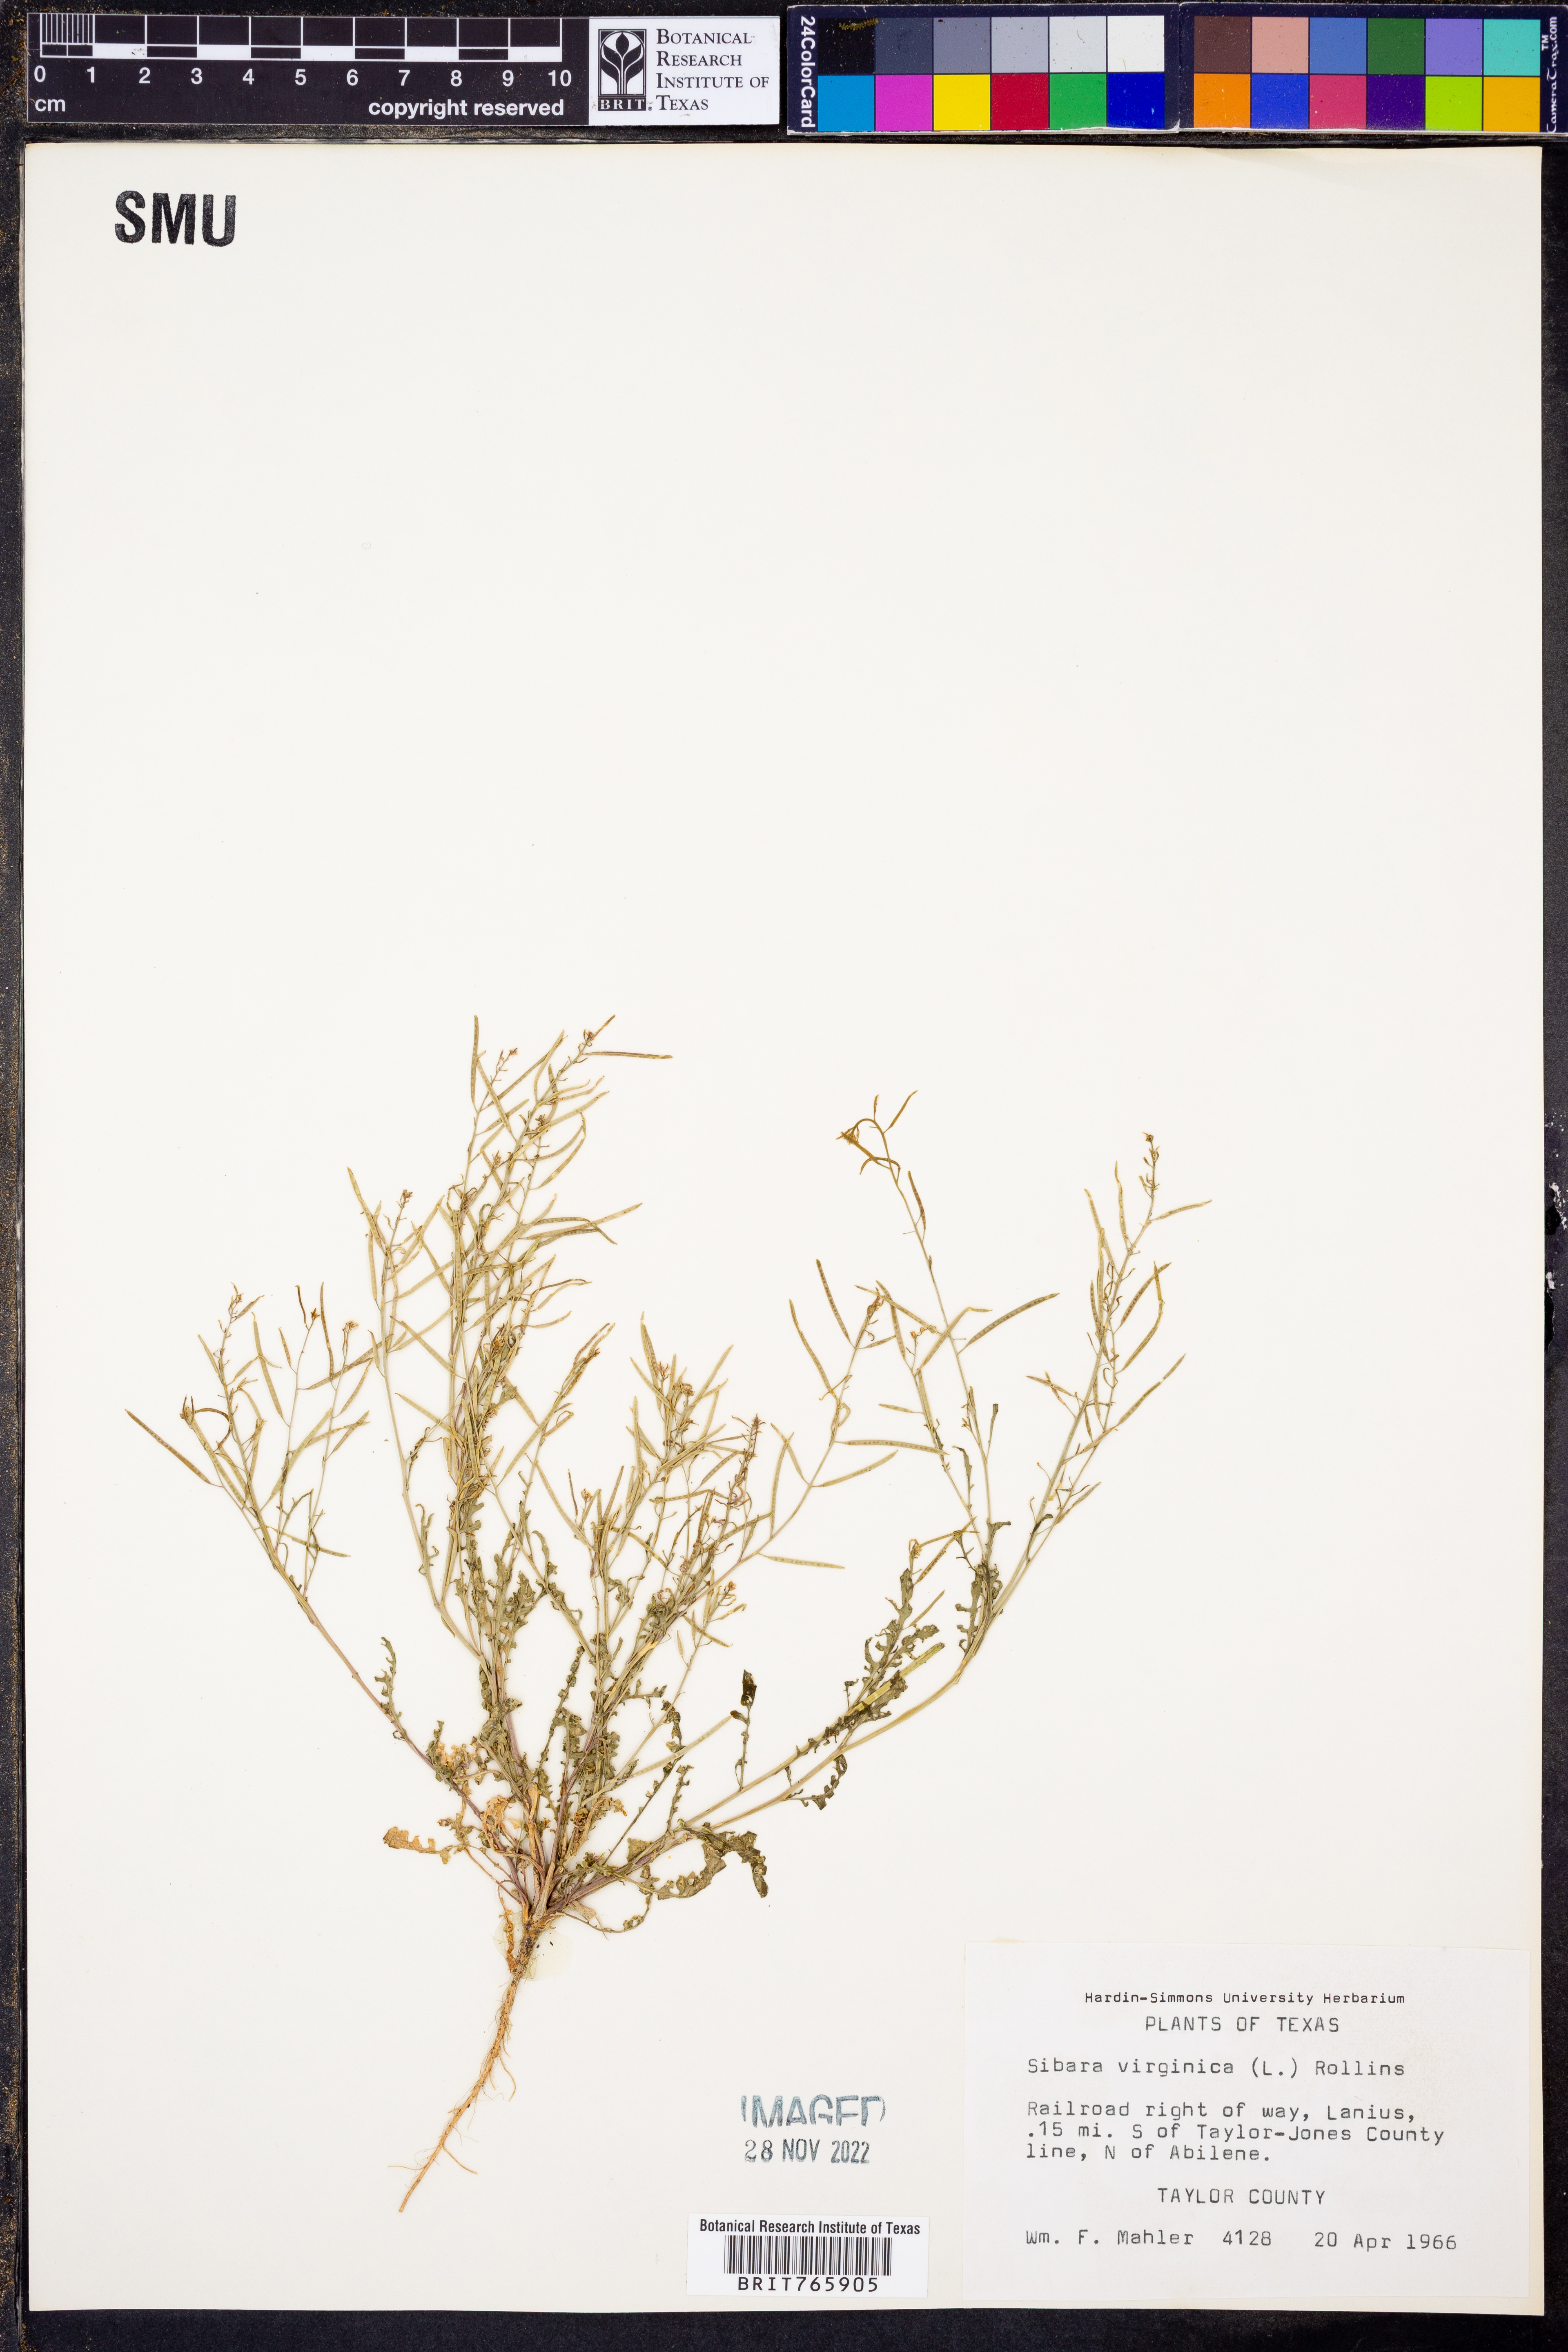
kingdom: Plantae
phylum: Tracheophyta
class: Magnoliopsida
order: Brassicales
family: Brassicaceae
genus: Planodes
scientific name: Planodes virginicum
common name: Virginia cress
